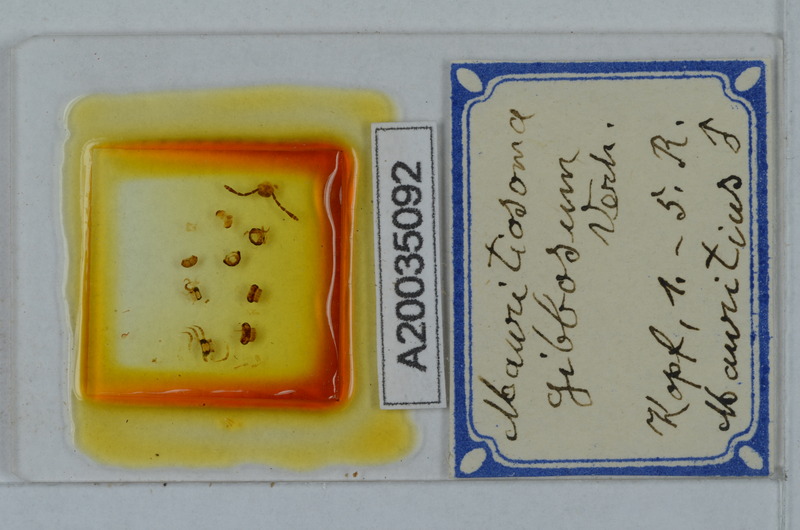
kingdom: Animalia
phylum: Arthropoda
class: Diplopoda
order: Polydesmida
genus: Mauritiosoma
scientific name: Mauritiosoma gibbosum
